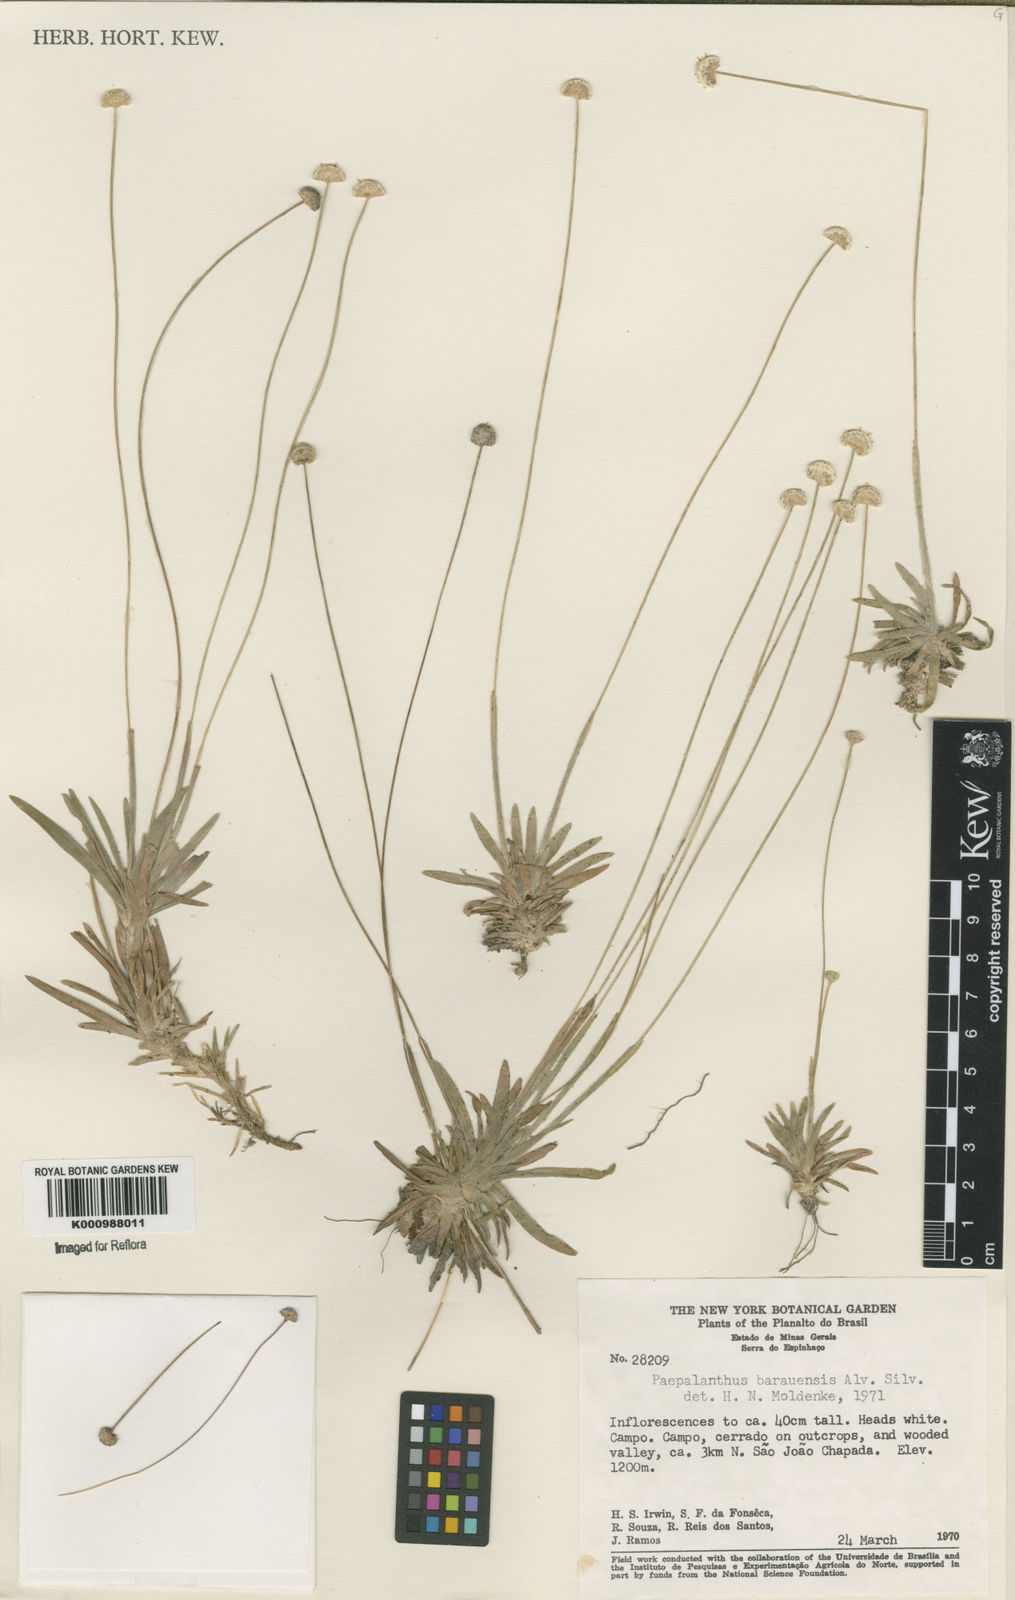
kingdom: Plantae
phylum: Tracheophyta
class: Liliopsida
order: Poales
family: Eriocaulaceae
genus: Paepalanthus
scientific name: Paepalanthus baraunensis
